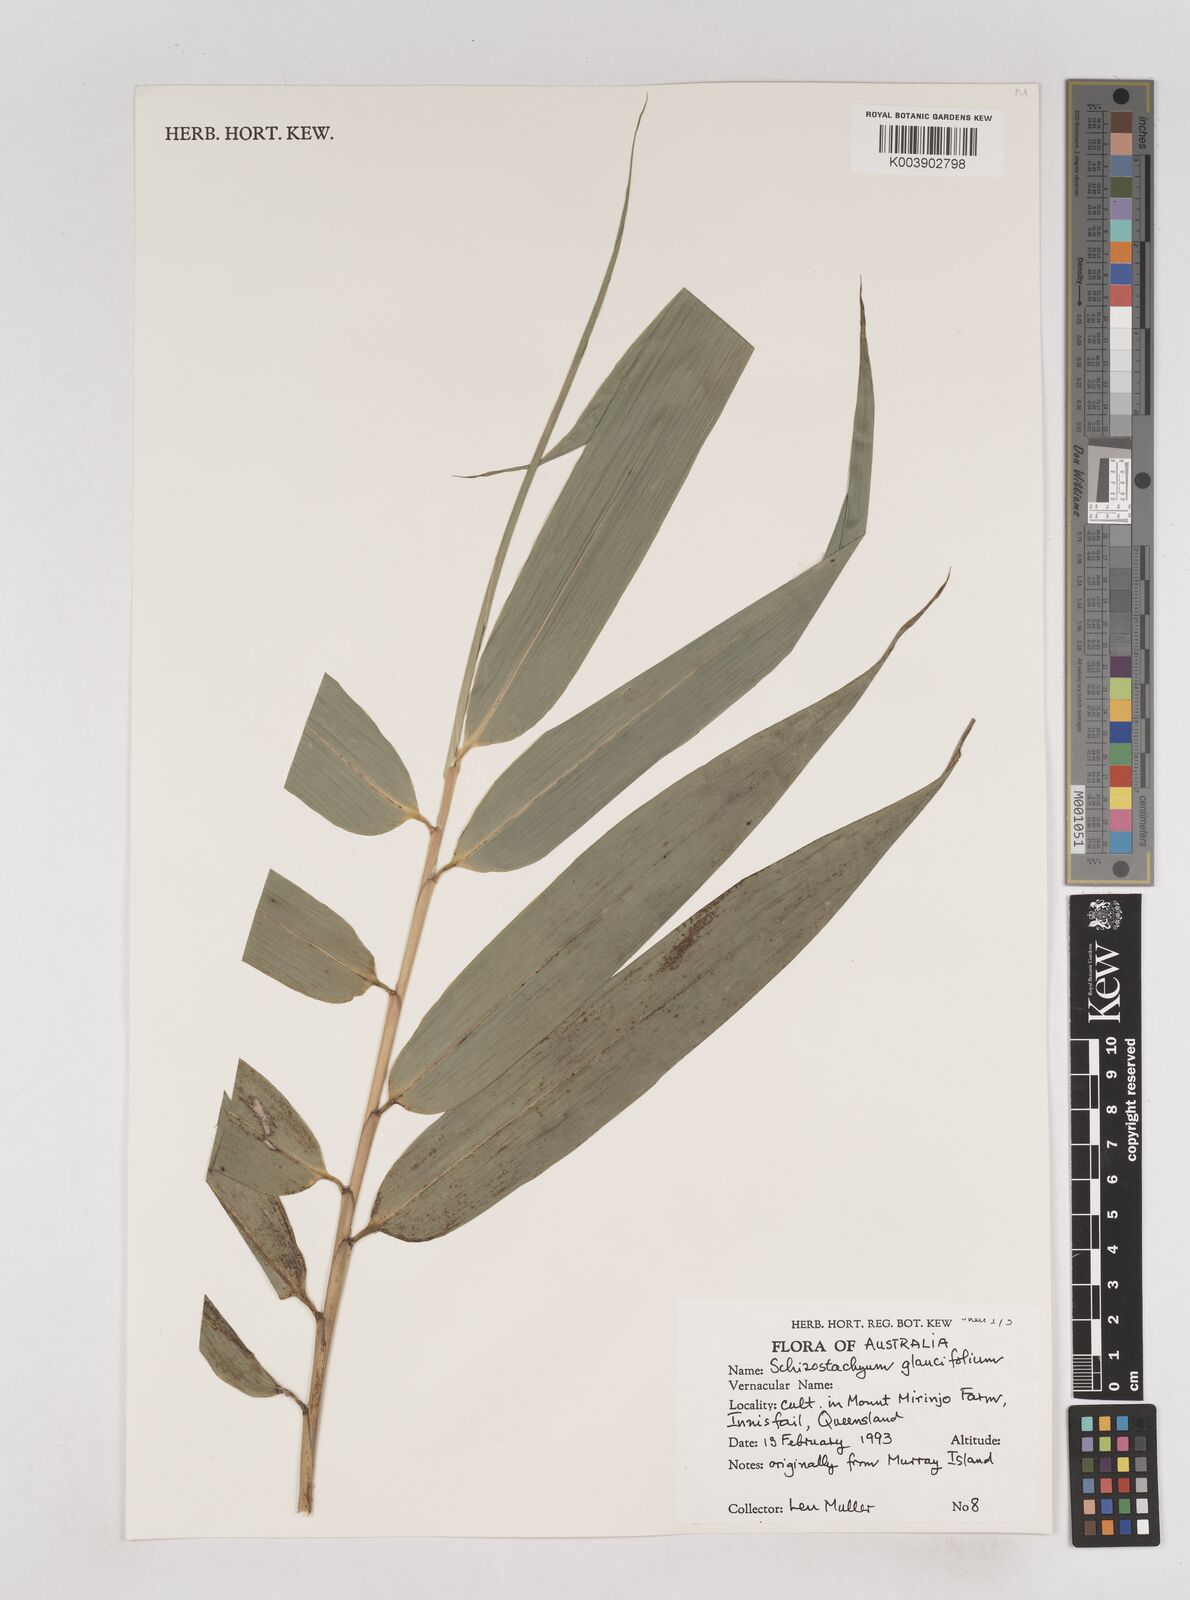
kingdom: Plantae
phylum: Tracheophyta
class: Liliopsida
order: Poales
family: Poaceae
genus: Schizostachyum
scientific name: Schizostachyum
